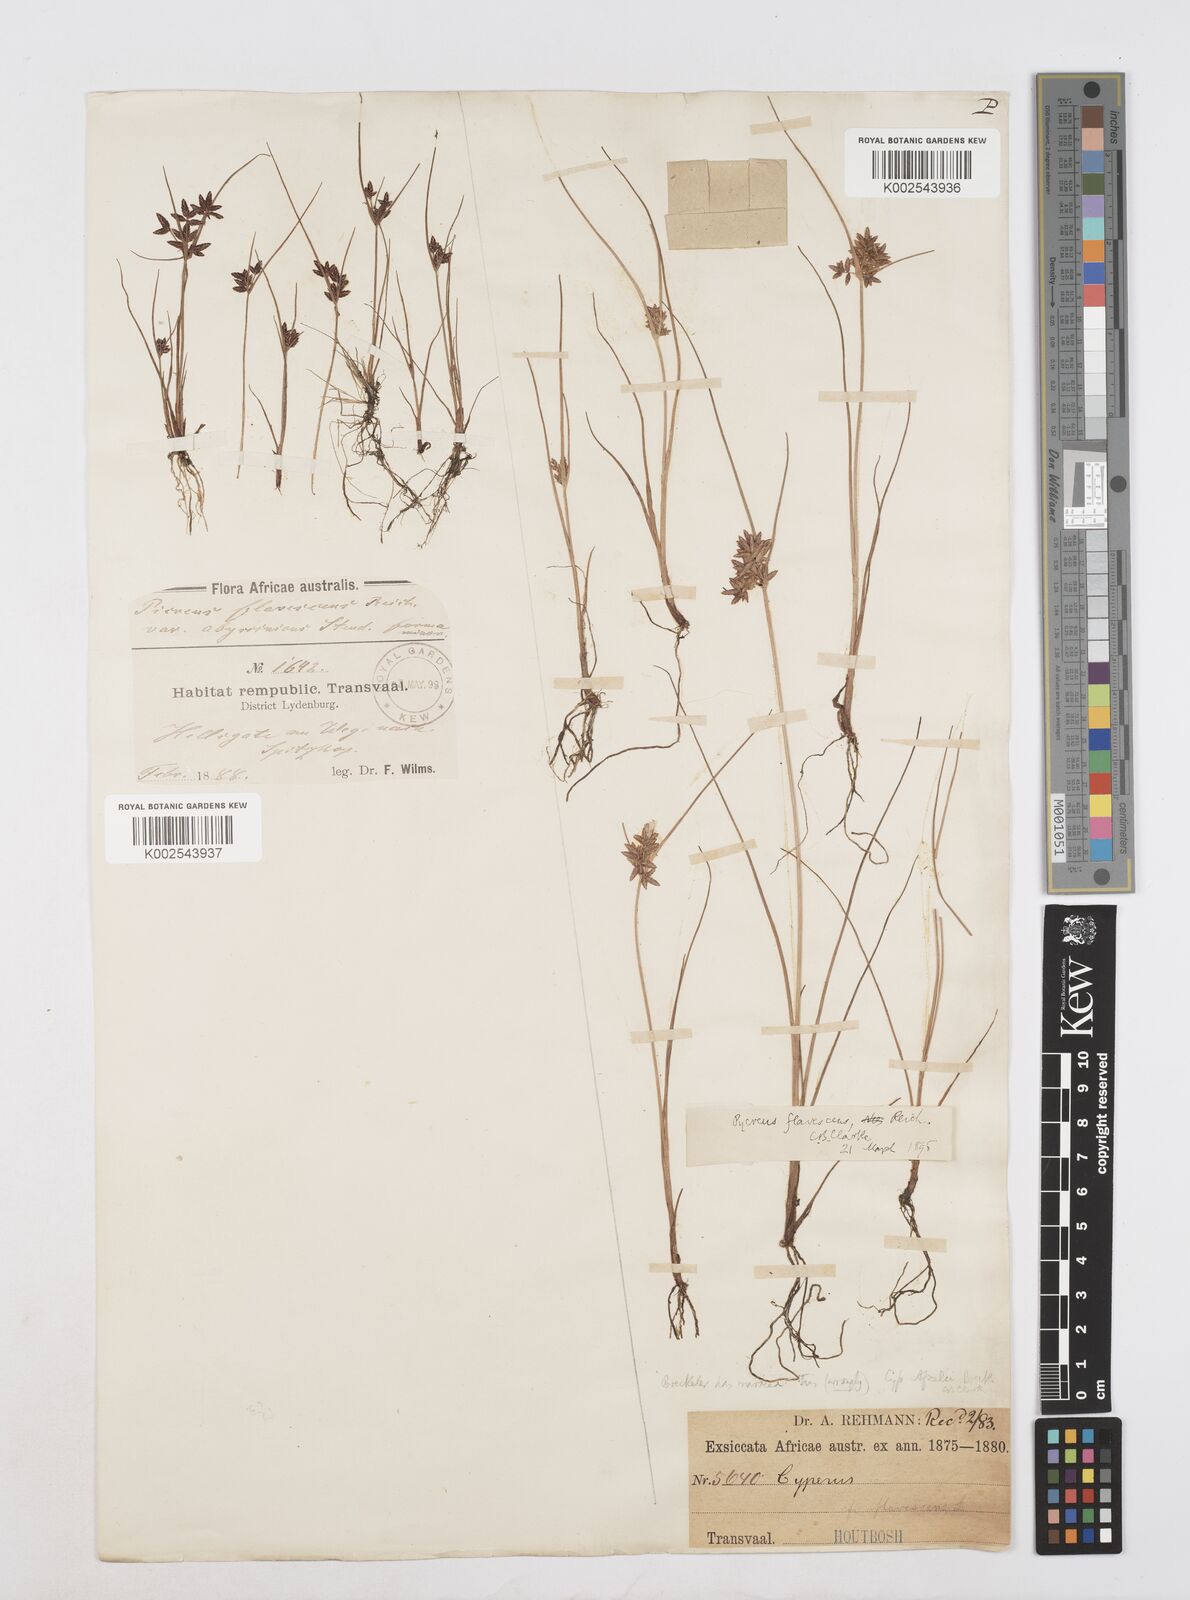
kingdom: Plantae
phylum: Tracheophyta
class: Liliopsida
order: Poales
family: Cyperaceae
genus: Cyperus
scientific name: Cyperus flavescens
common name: Yellow galingale
